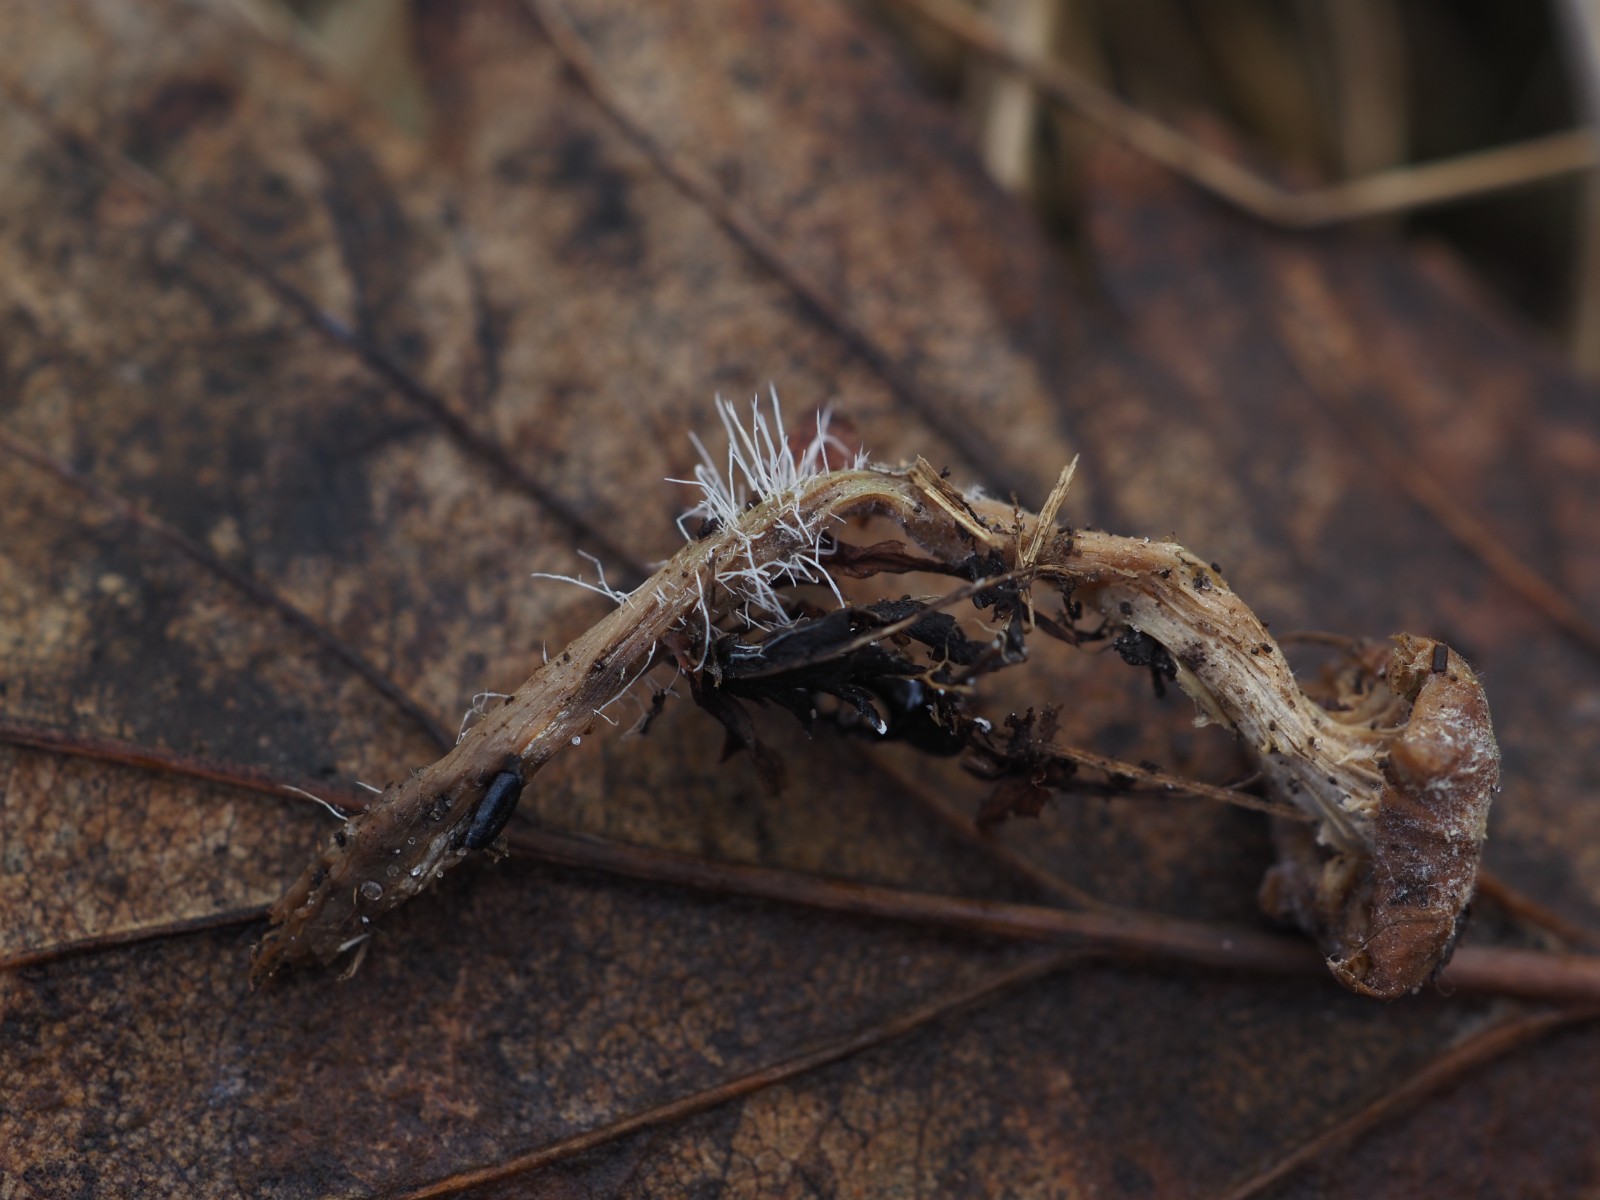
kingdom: Fungi
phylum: Ascomycota
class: Sordariomycetes
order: Hypocreales
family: Tilachlidiaceae
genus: Tilachlidium
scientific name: Tilachlidium brachiatum
